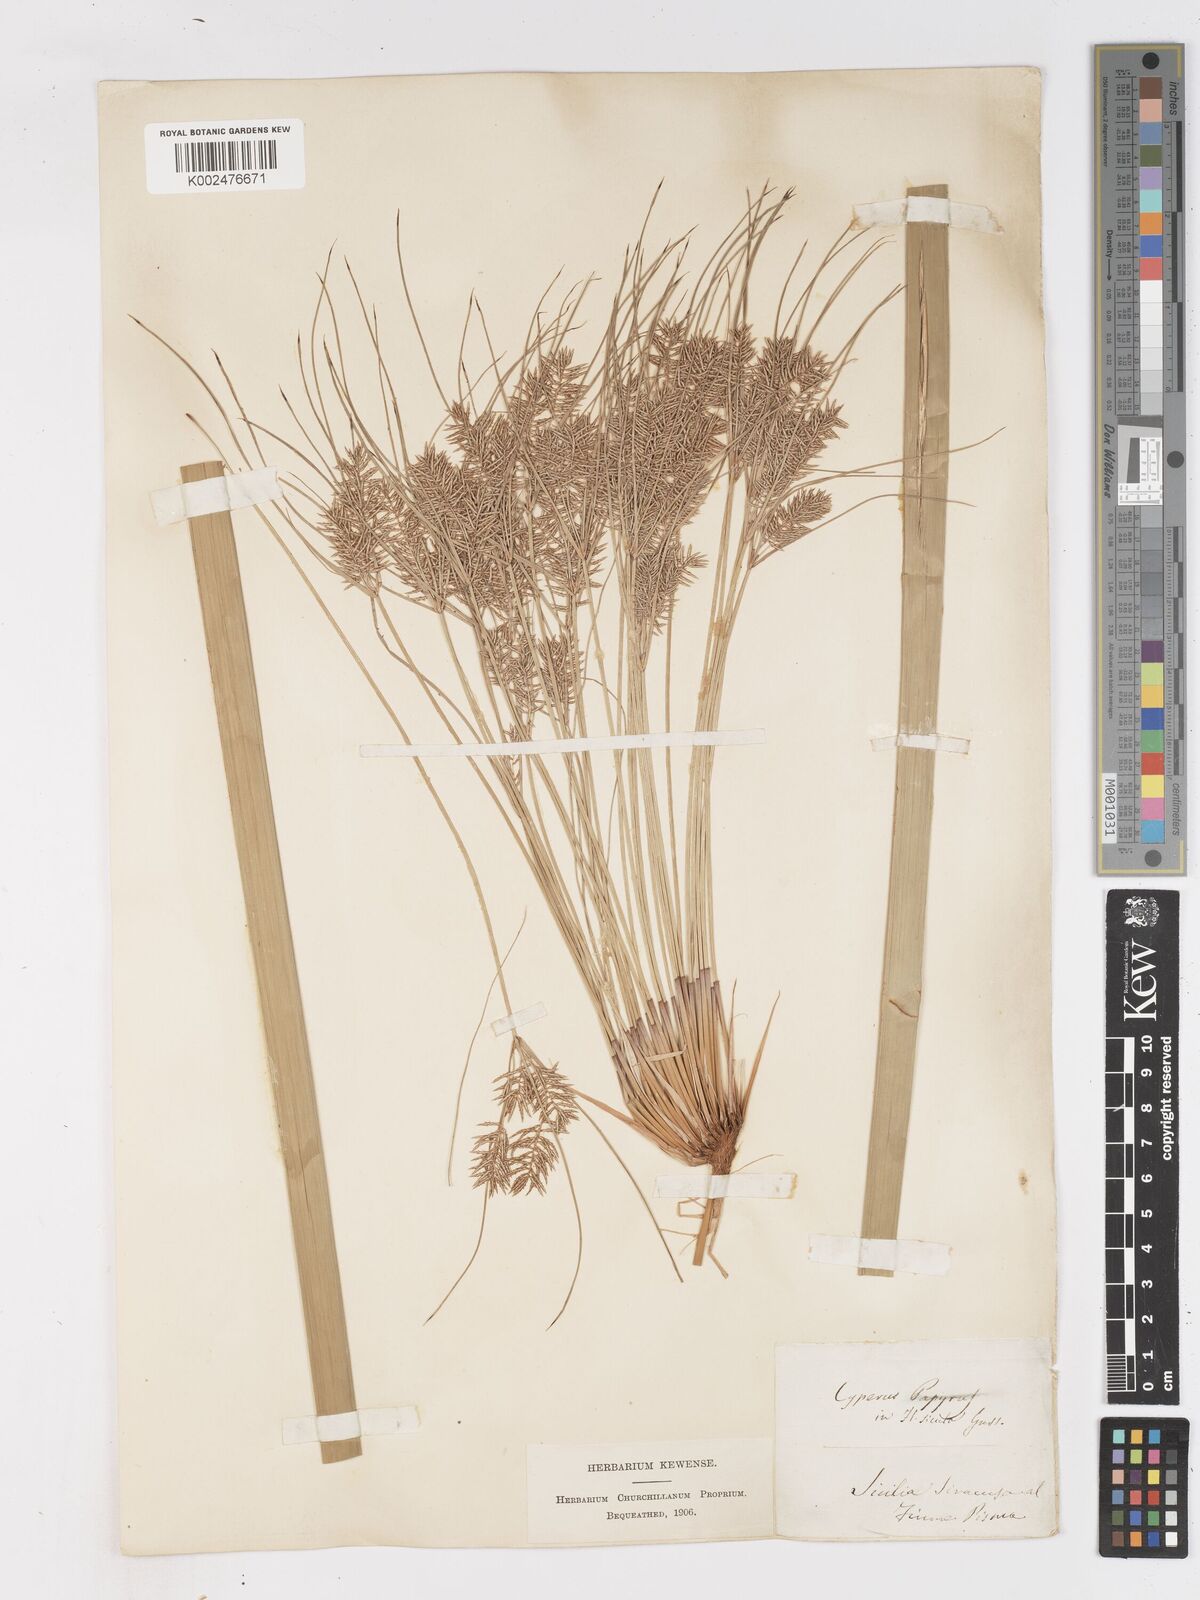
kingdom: Plantae
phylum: Tracheophyta
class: Liliopsida
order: Poales
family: Cyperaceae
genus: Cyperus
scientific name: Cyperus papyrus
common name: Papyrus
